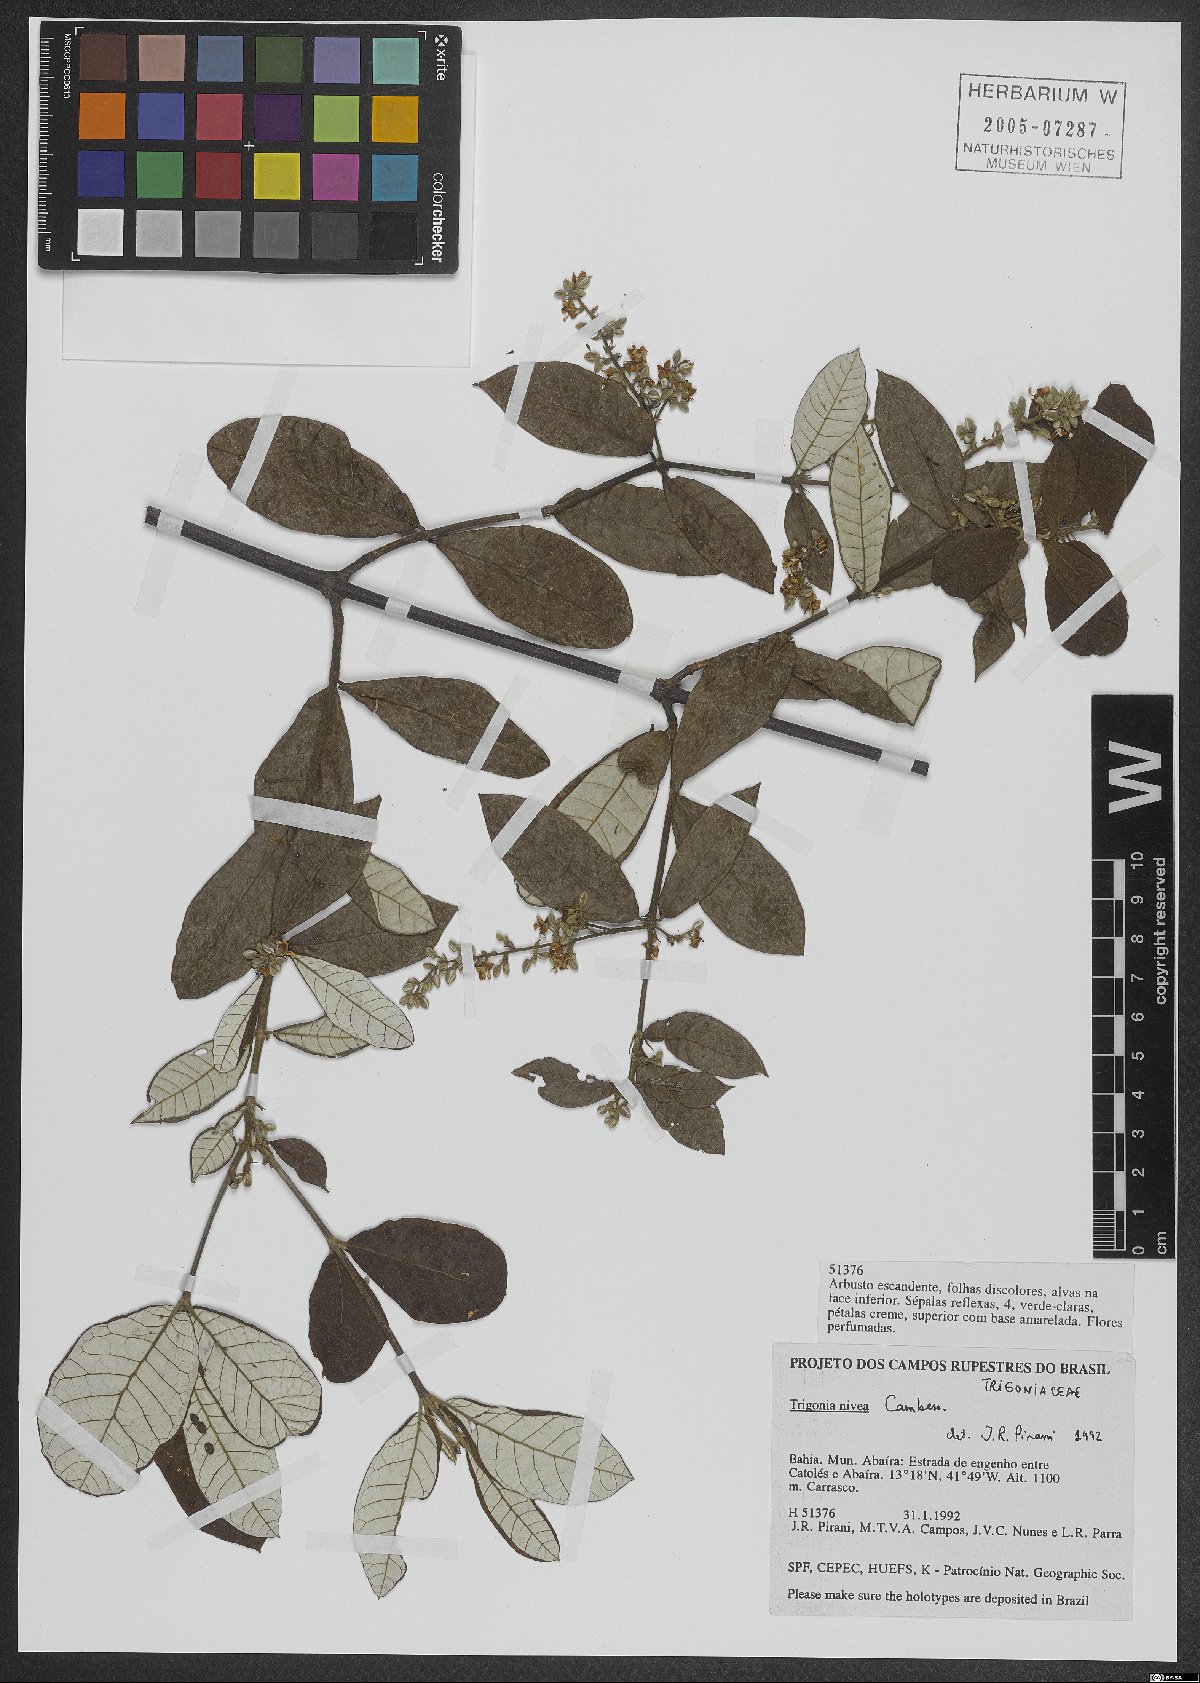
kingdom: Plantae
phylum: Tracheophyta
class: Magnoliopsida
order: Malpighiales
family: Trigoniaceae
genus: Trigonia
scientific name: Trigonia nivea
